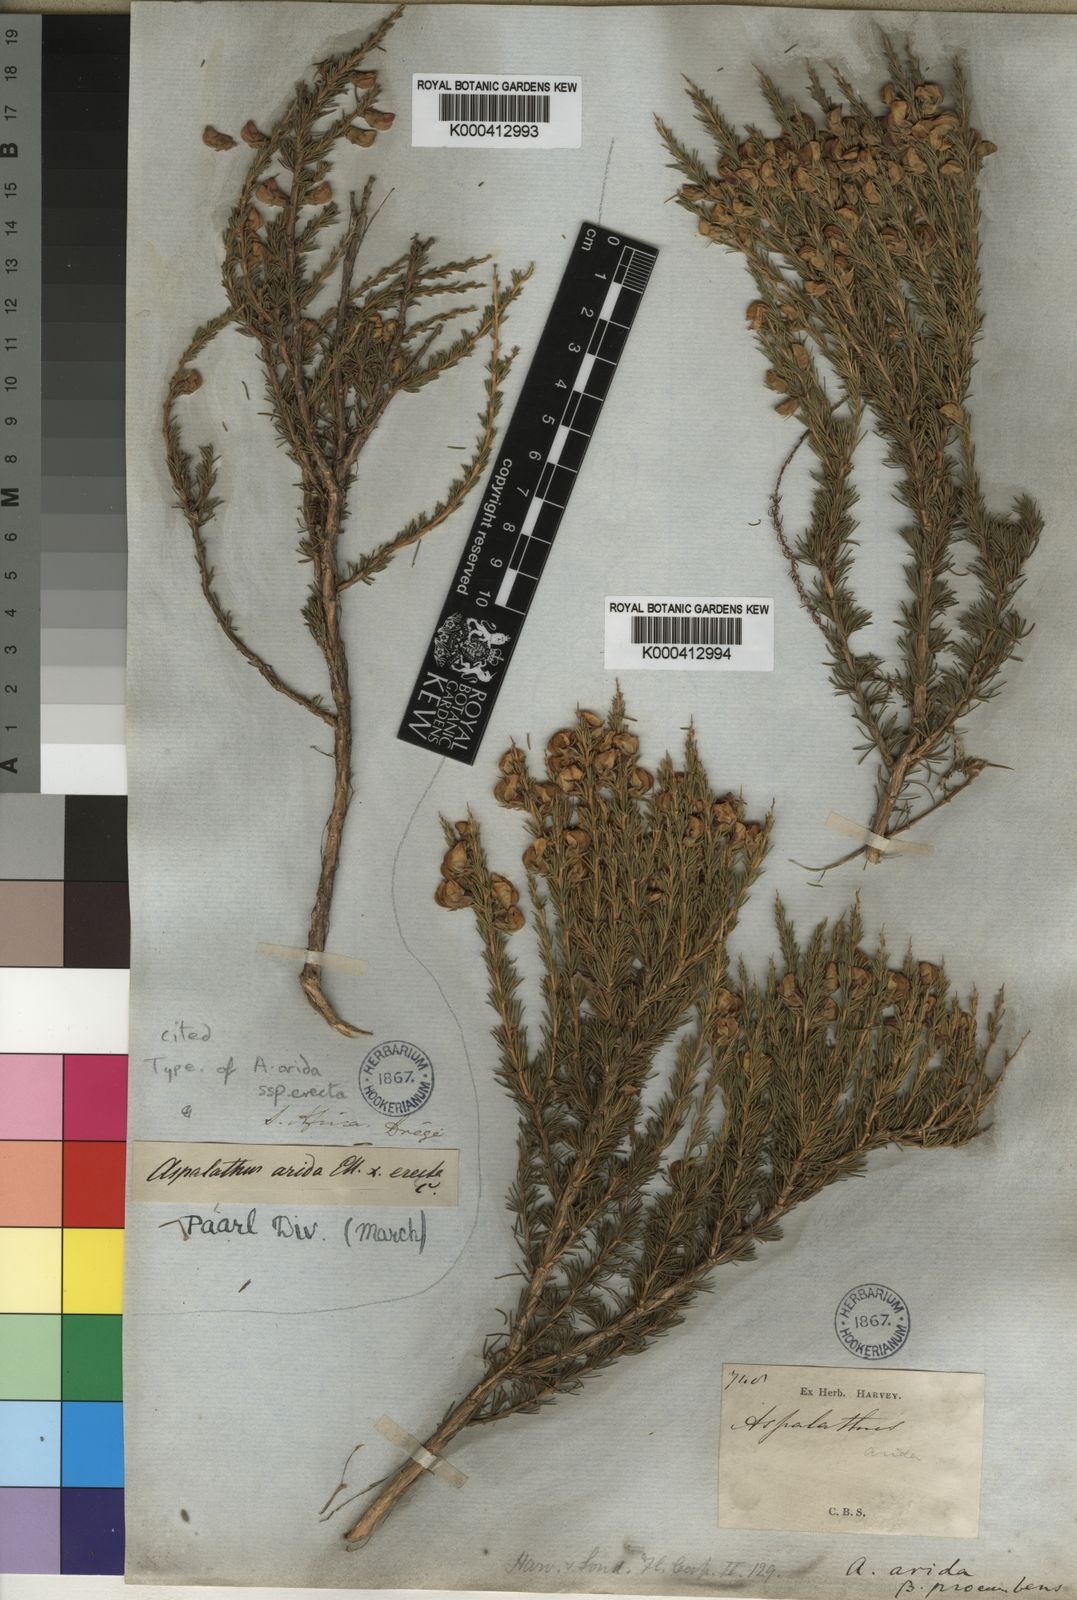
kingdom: Plantae
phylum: Tracheophyta
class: Magnoliopsida
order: Fabales
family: Fabaceae
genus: Aspalathus
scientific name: Aspalathus arida
